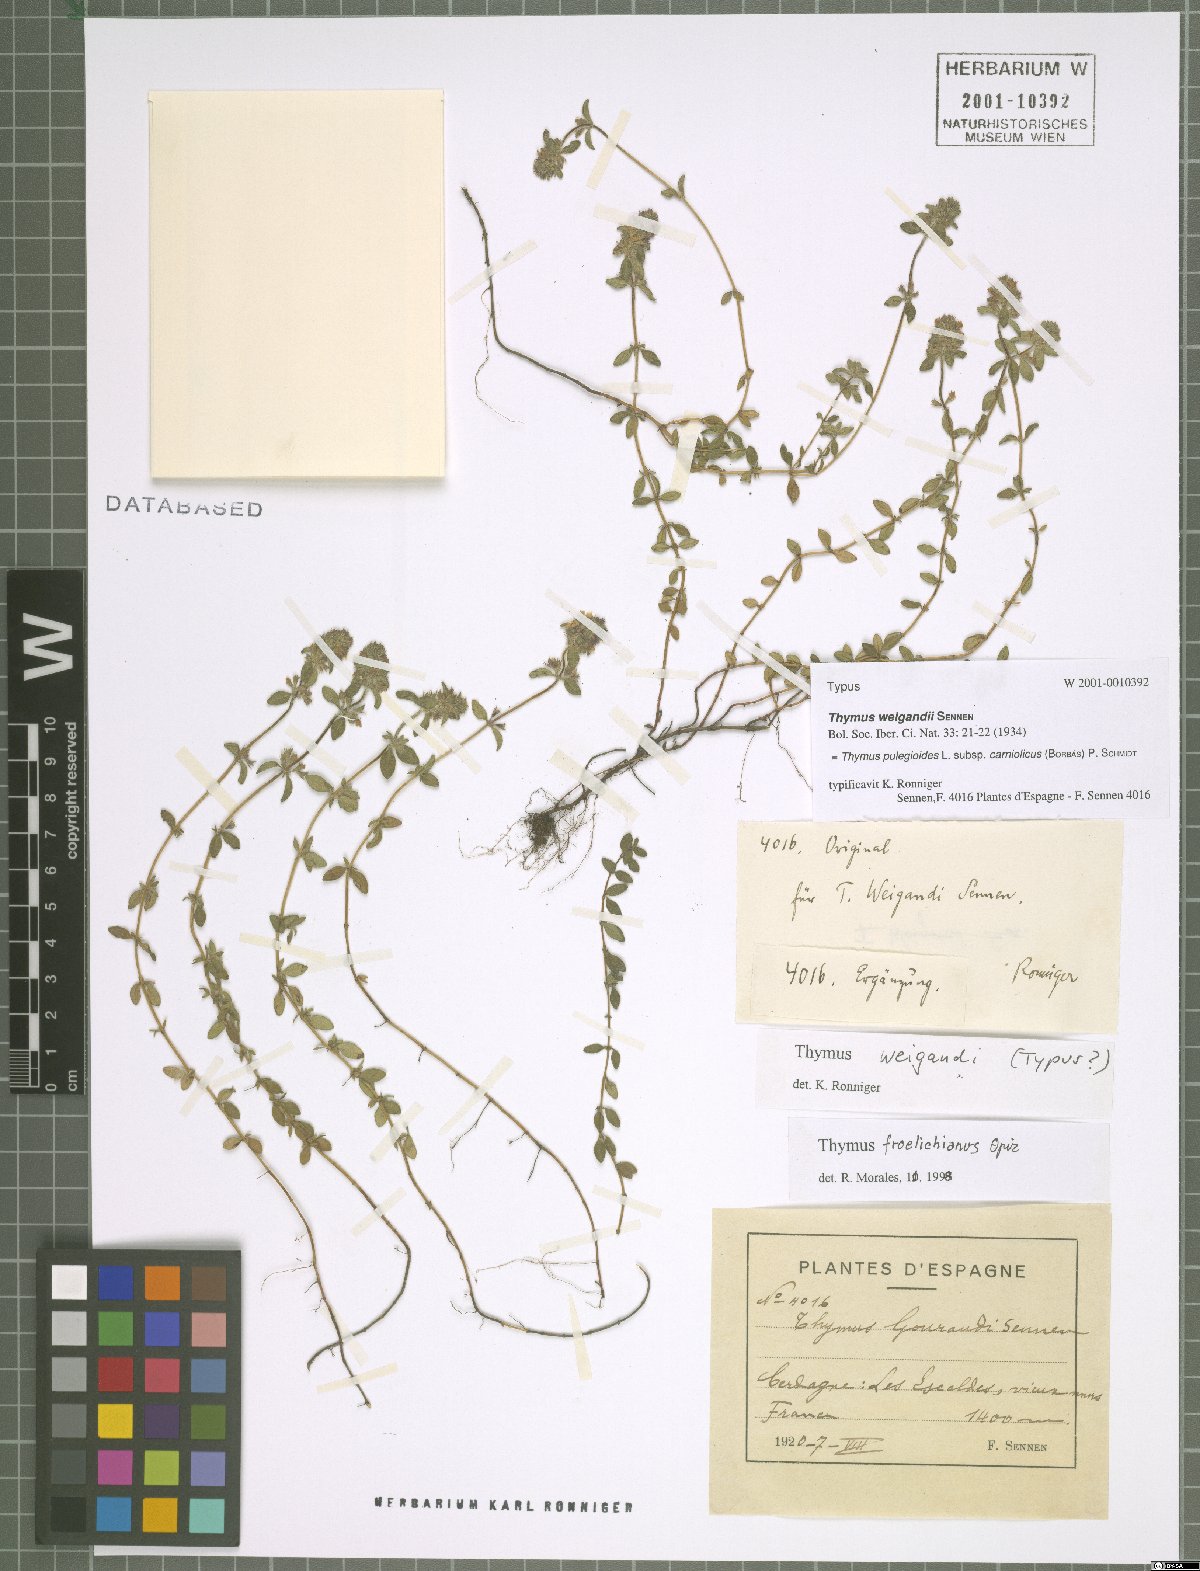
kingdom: Plantae
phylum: Tracheophyta
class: Magnoliopsida
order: Lamiales
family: Lamiaceae
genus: Thymus
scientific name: Thymus pannonicus
